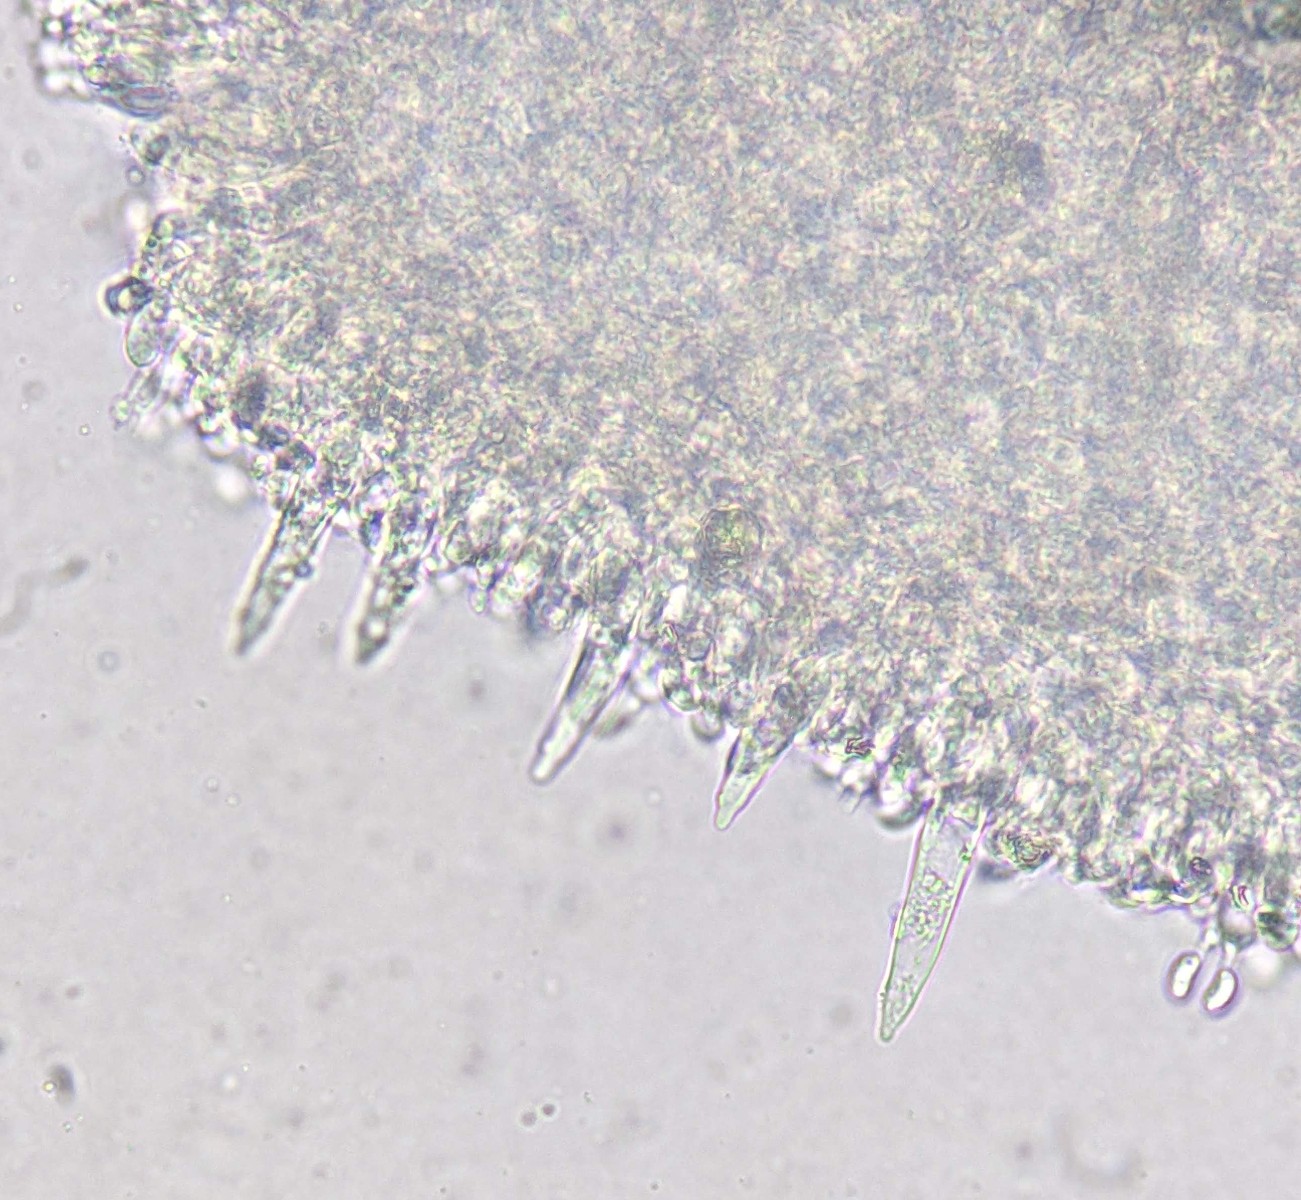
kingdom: Fungi
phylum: Basidiomycota
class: Agaricomycetes
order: Agaricales
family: Physalacriaceae
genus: Strobilurus
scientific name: Strobilurus tenacellus
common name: sommer-koglehat
